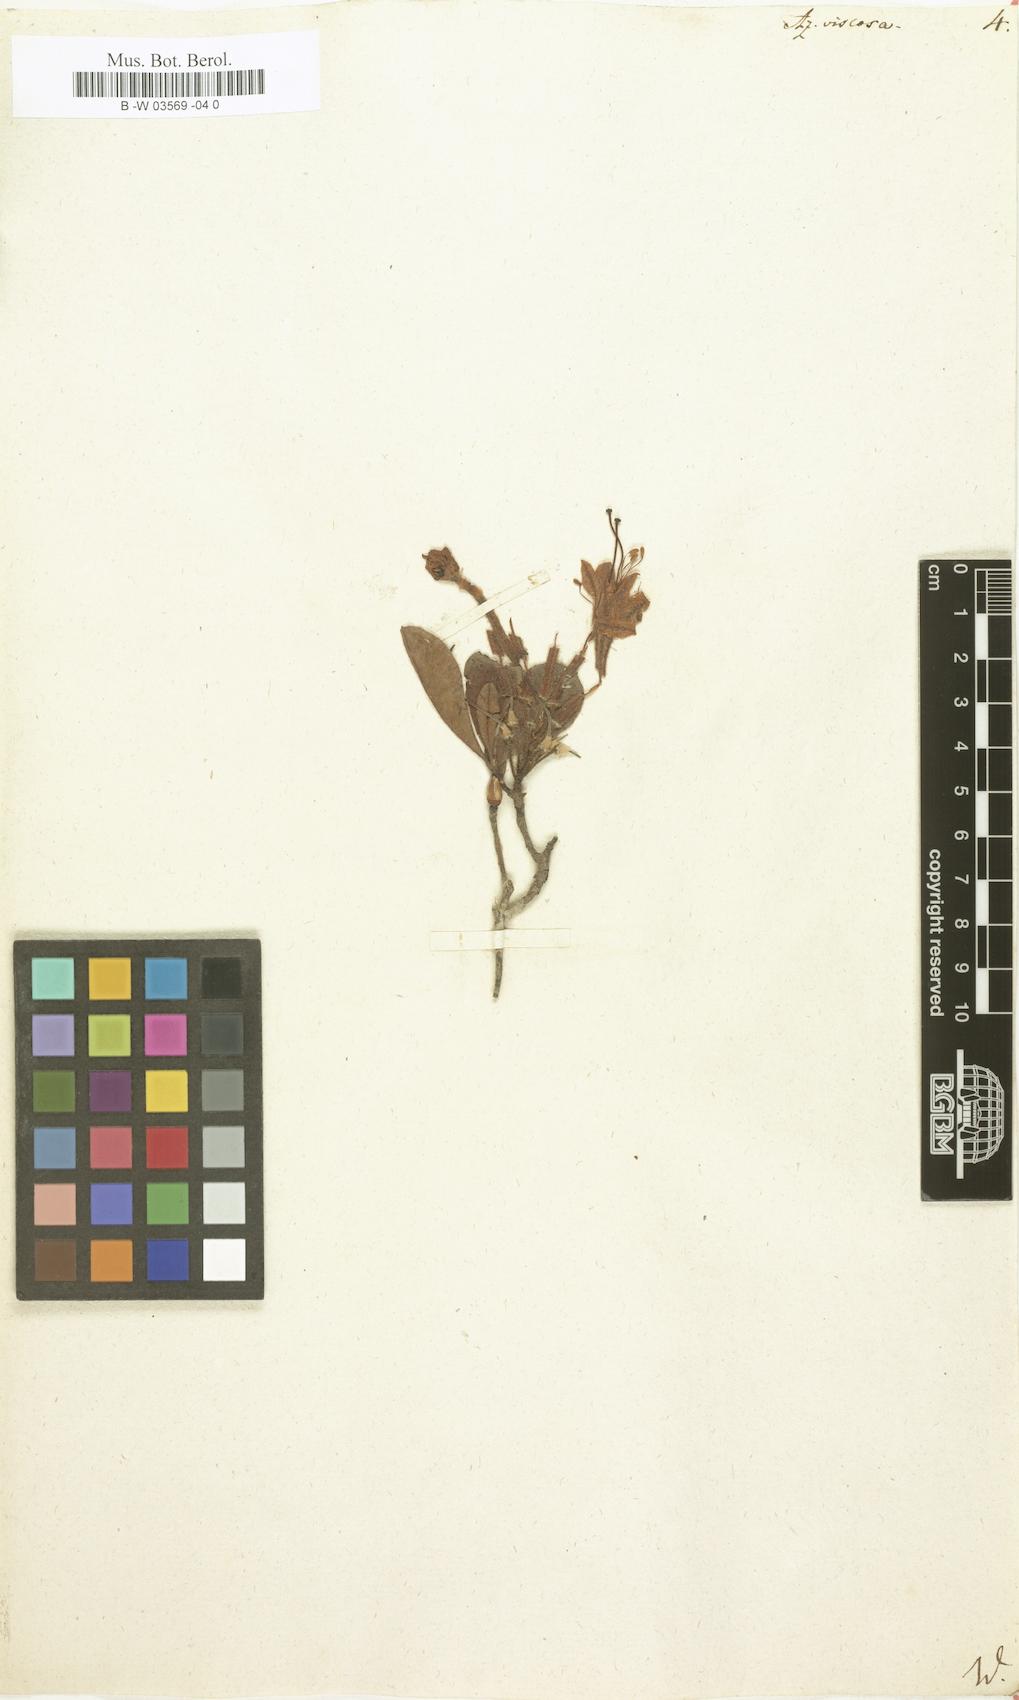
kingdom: Plantae
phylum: Tracheophyta
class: Magnoliopsida
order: Ericales
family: Ericaceae
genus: Rhododendron
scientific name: Rhododendron viscosum
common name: Clammy azalea
